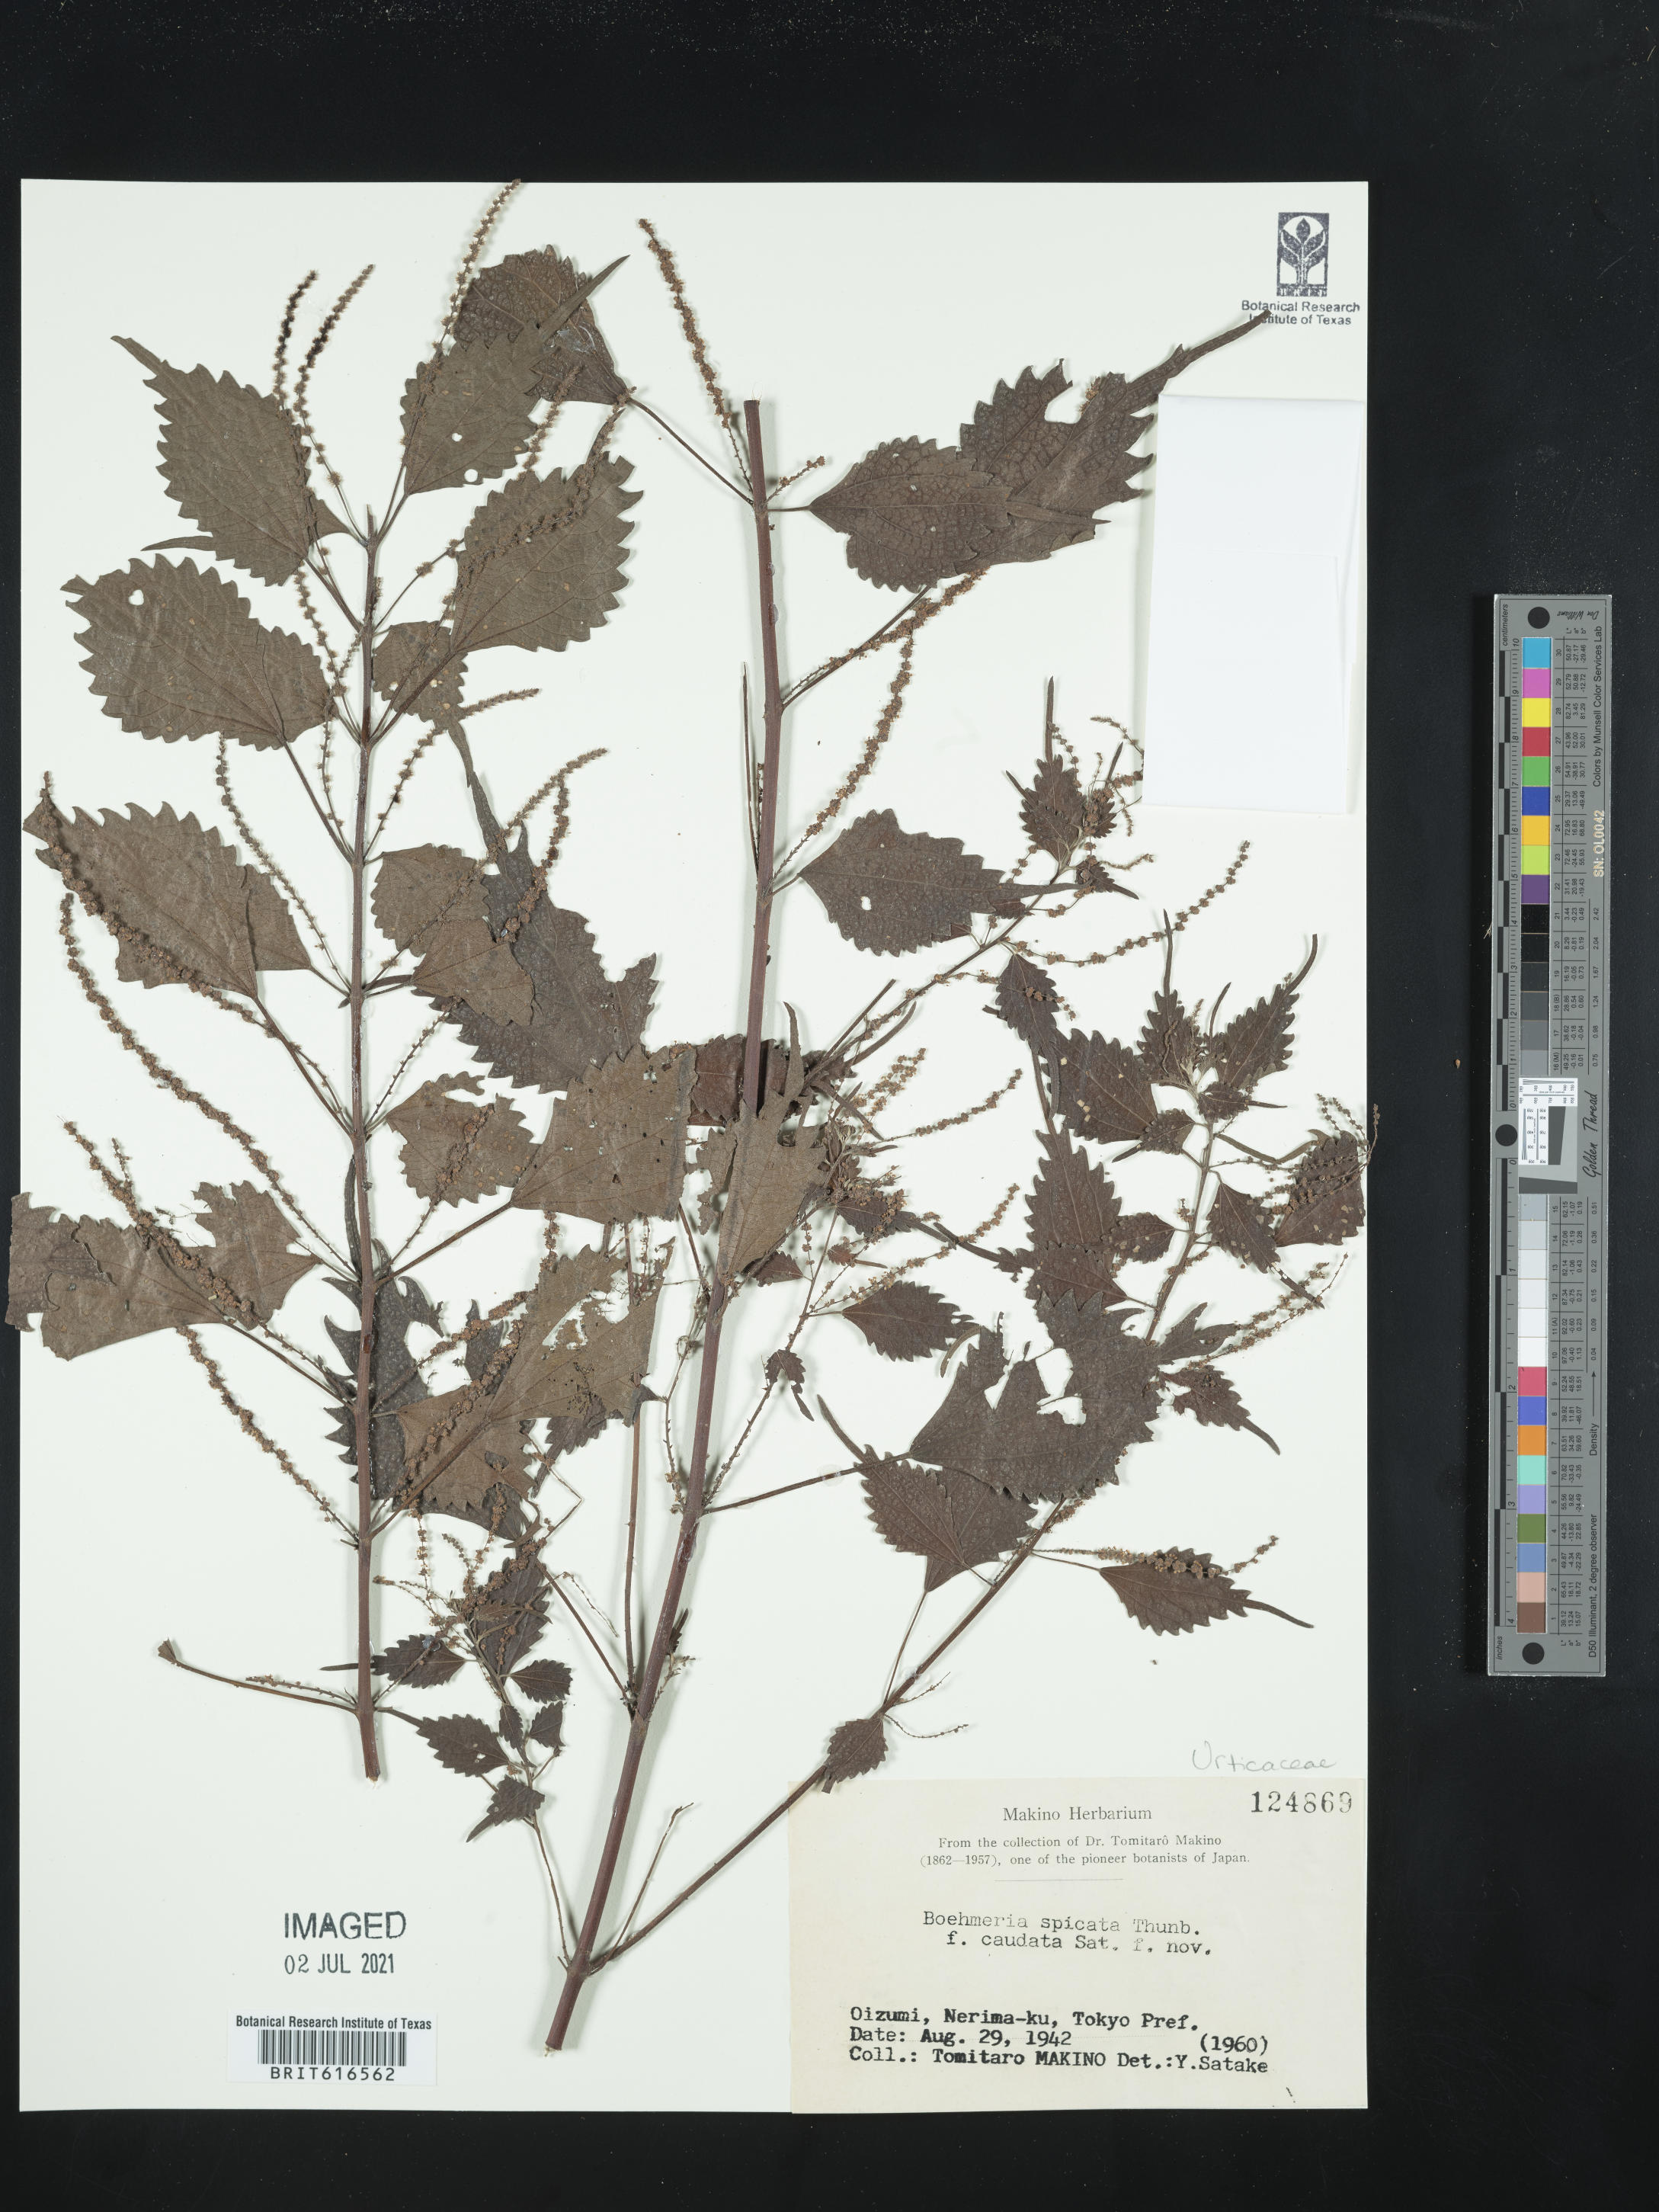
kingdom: Plantae
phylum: Tracheophyta
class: Magnoliopsida
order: Rosales
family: Urticaceae
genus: Boehmeria
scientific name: Boehmeria japonica
